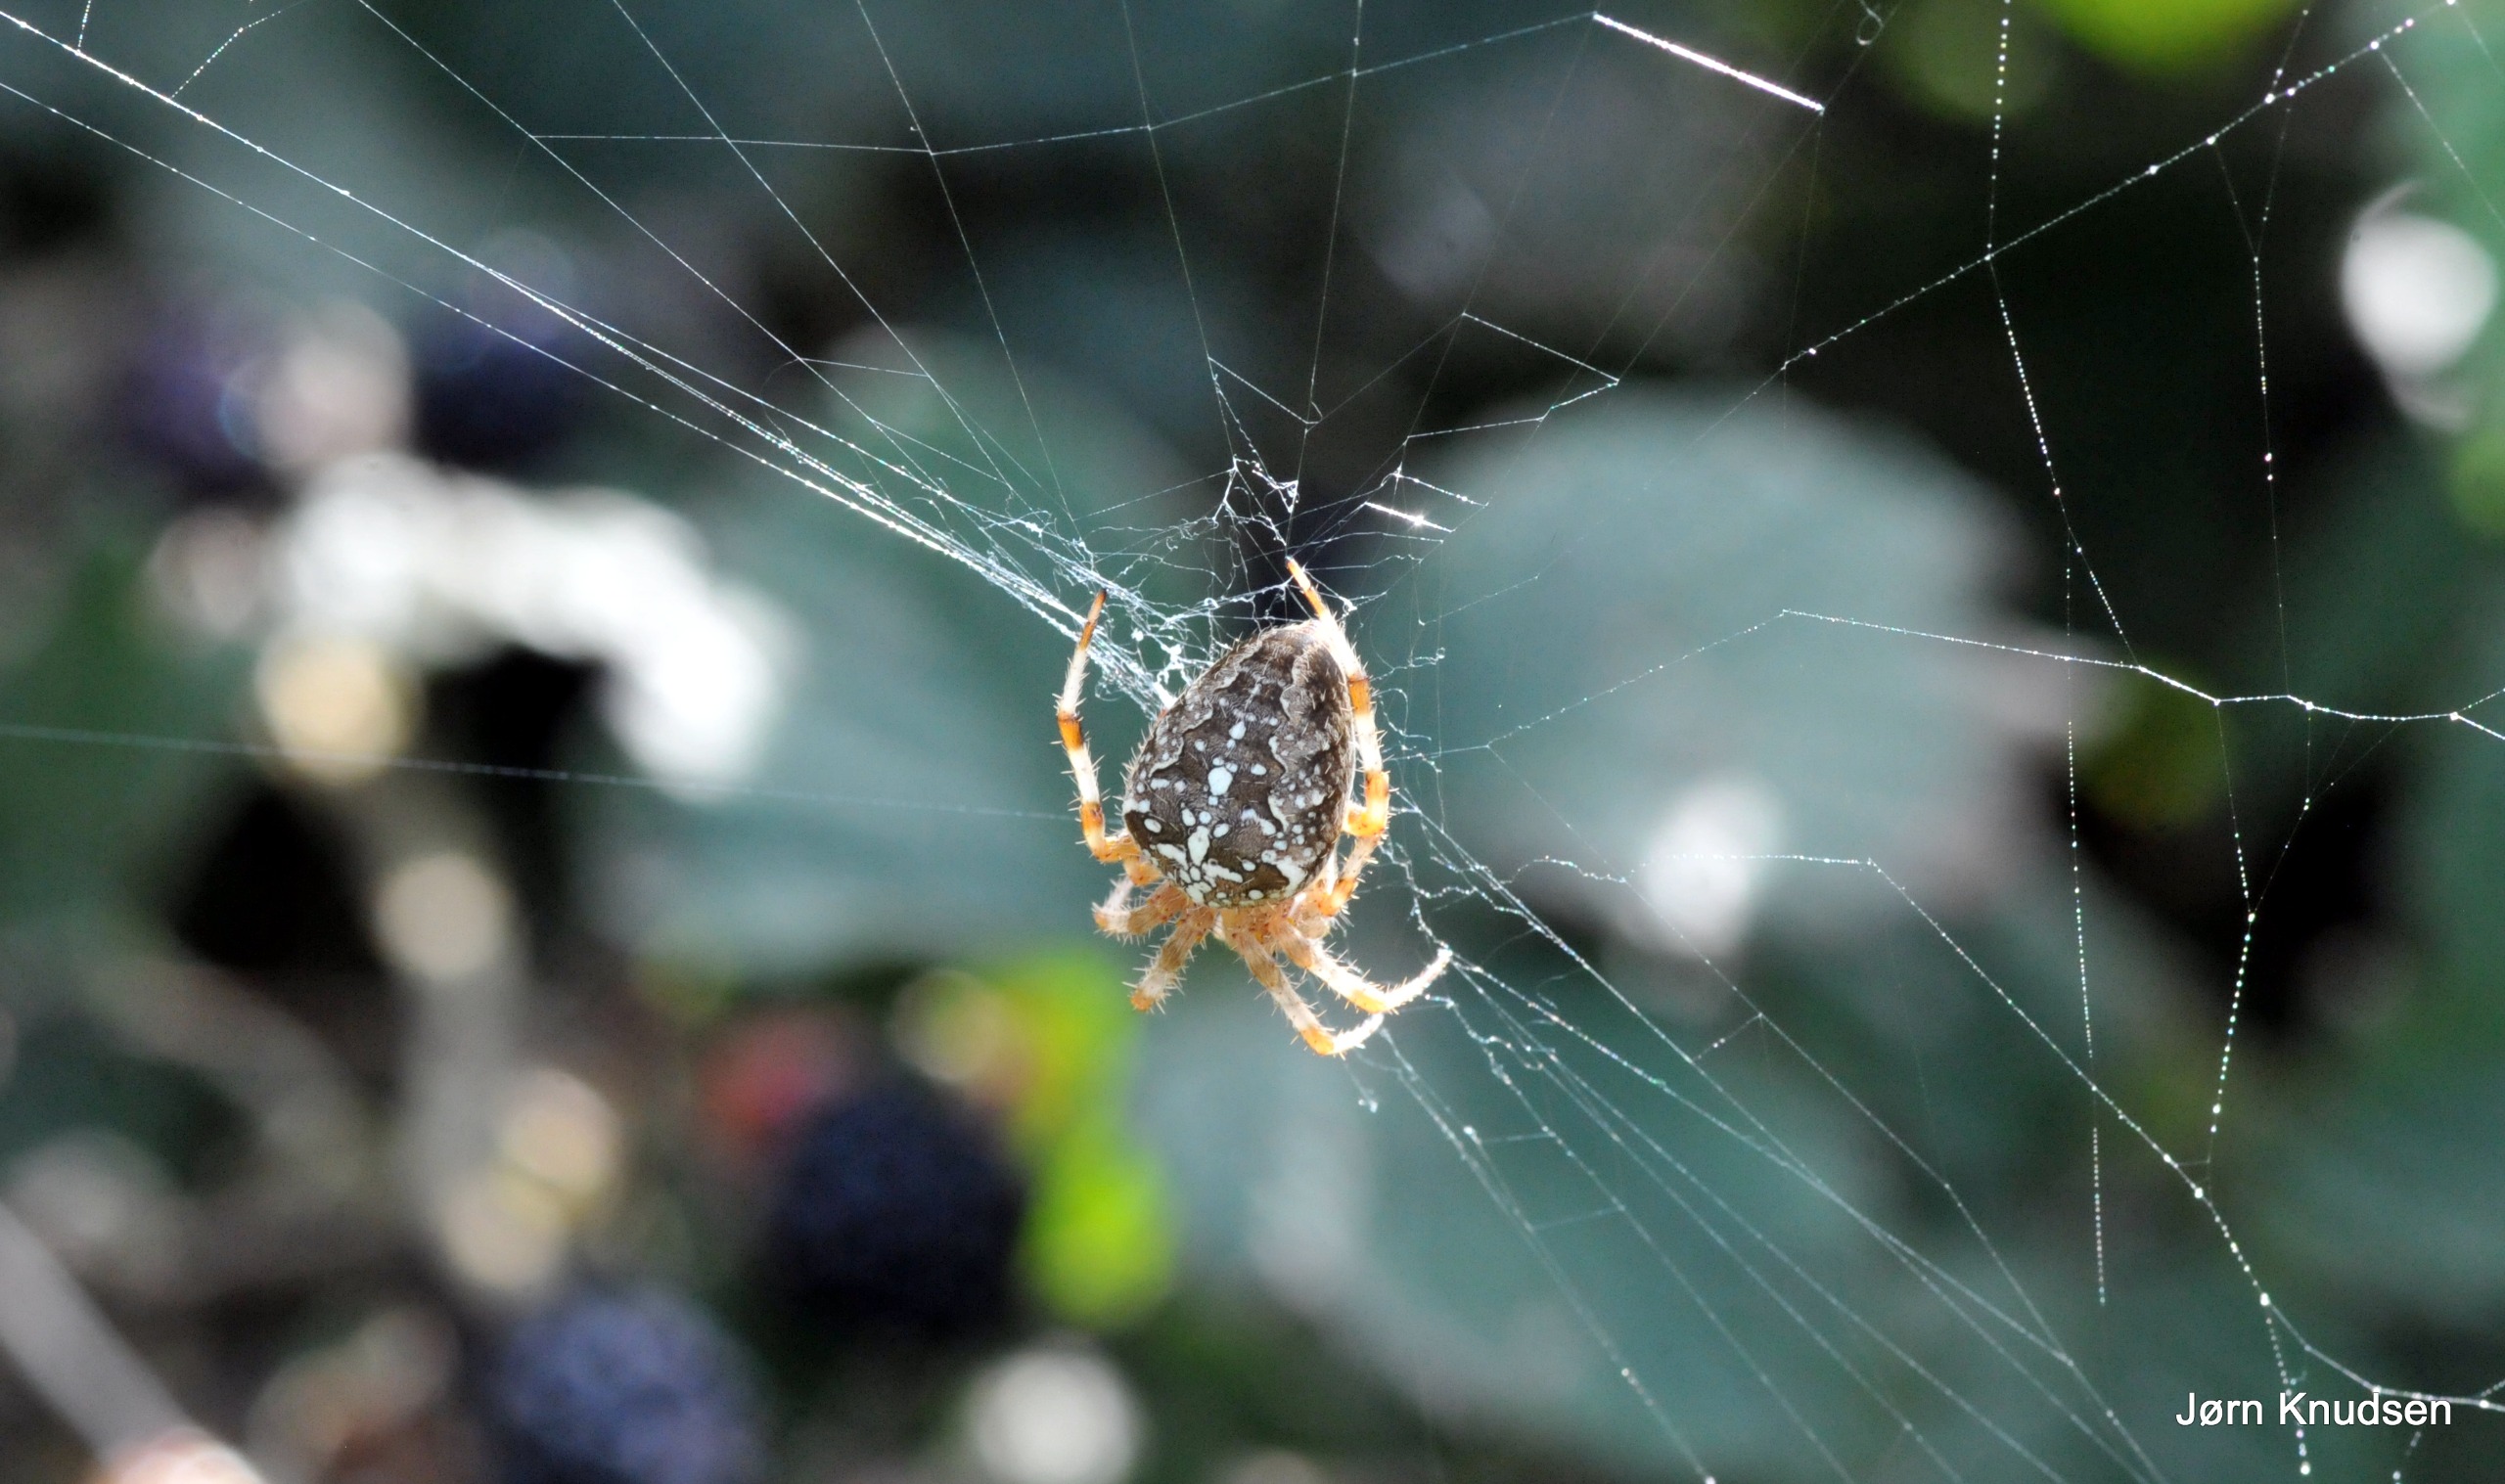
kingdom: Animalia
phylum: Arthropoda
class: Arachnida
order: Araneae
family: Araneidae
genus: Araneus
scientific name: Araneus diadematus
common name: Korsedderkop
